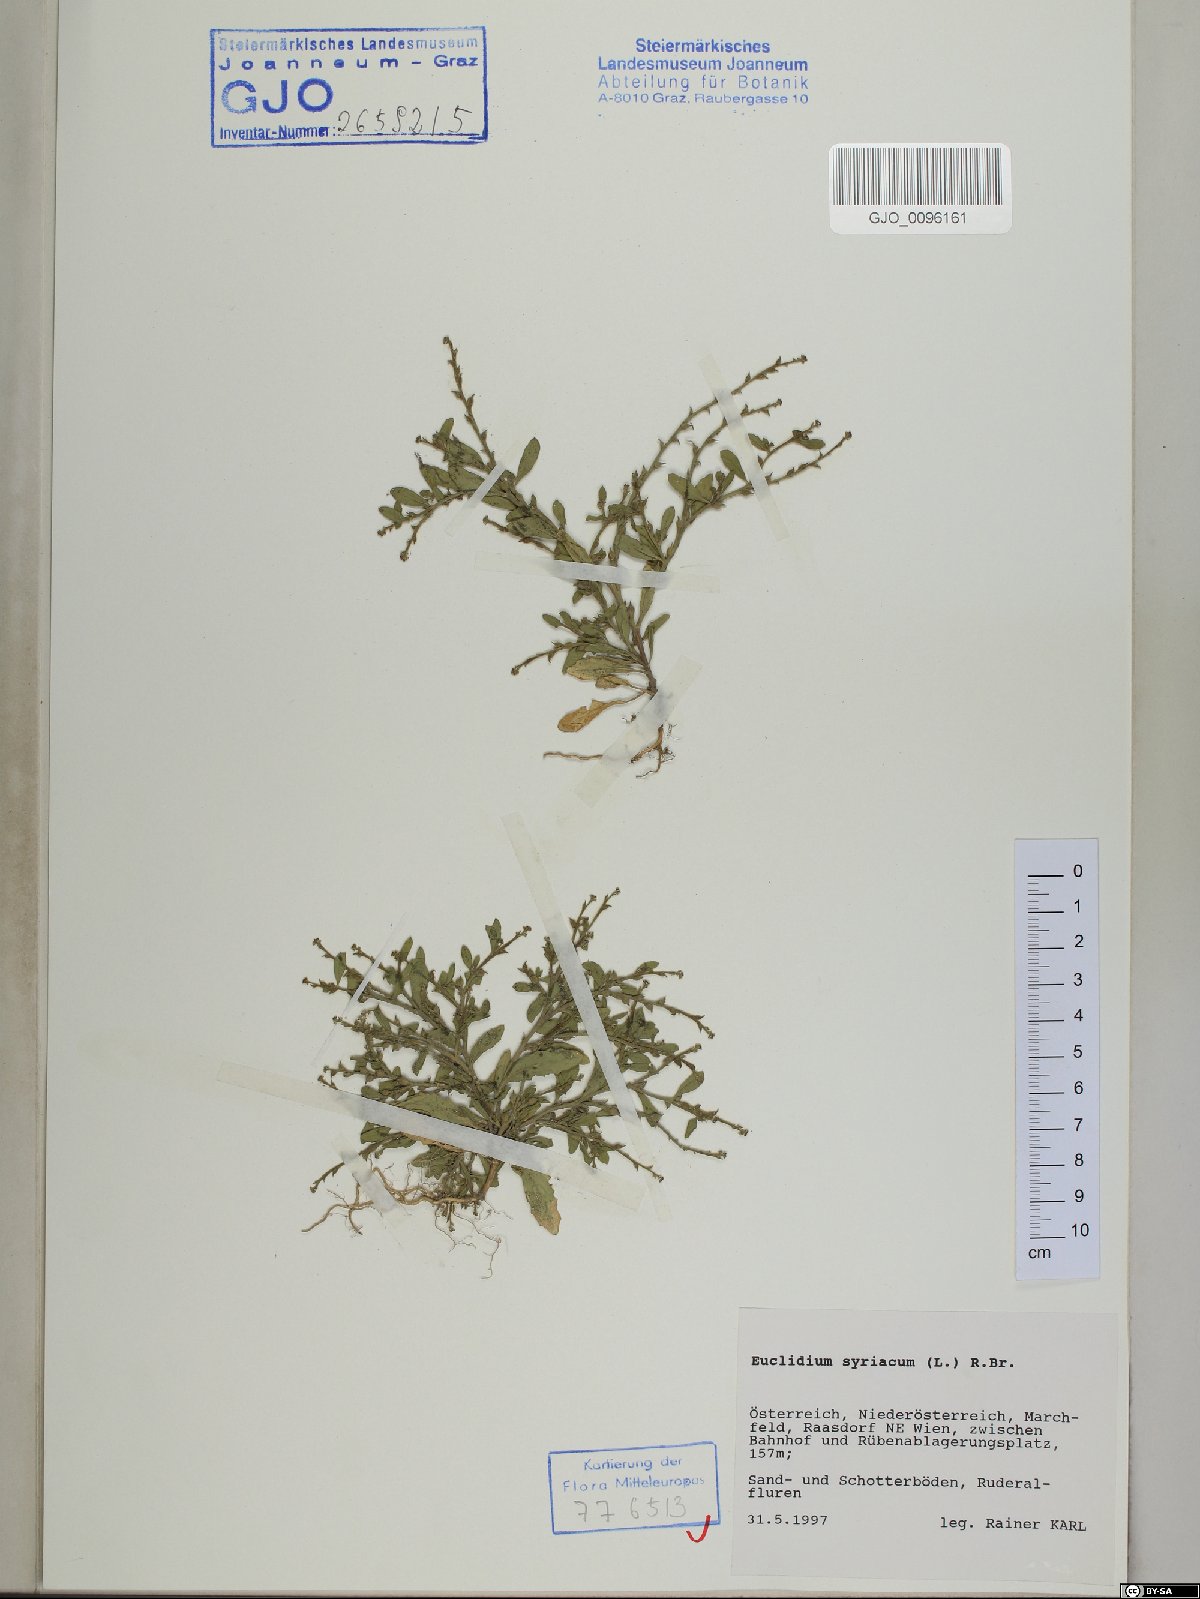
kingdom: Plantae
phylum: Tracheophyta
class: Magnoliopsida
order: Brassicales
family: Brassicaceae
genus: Euclidium
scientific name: Euclidium syriacum
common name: Syrian mustard
